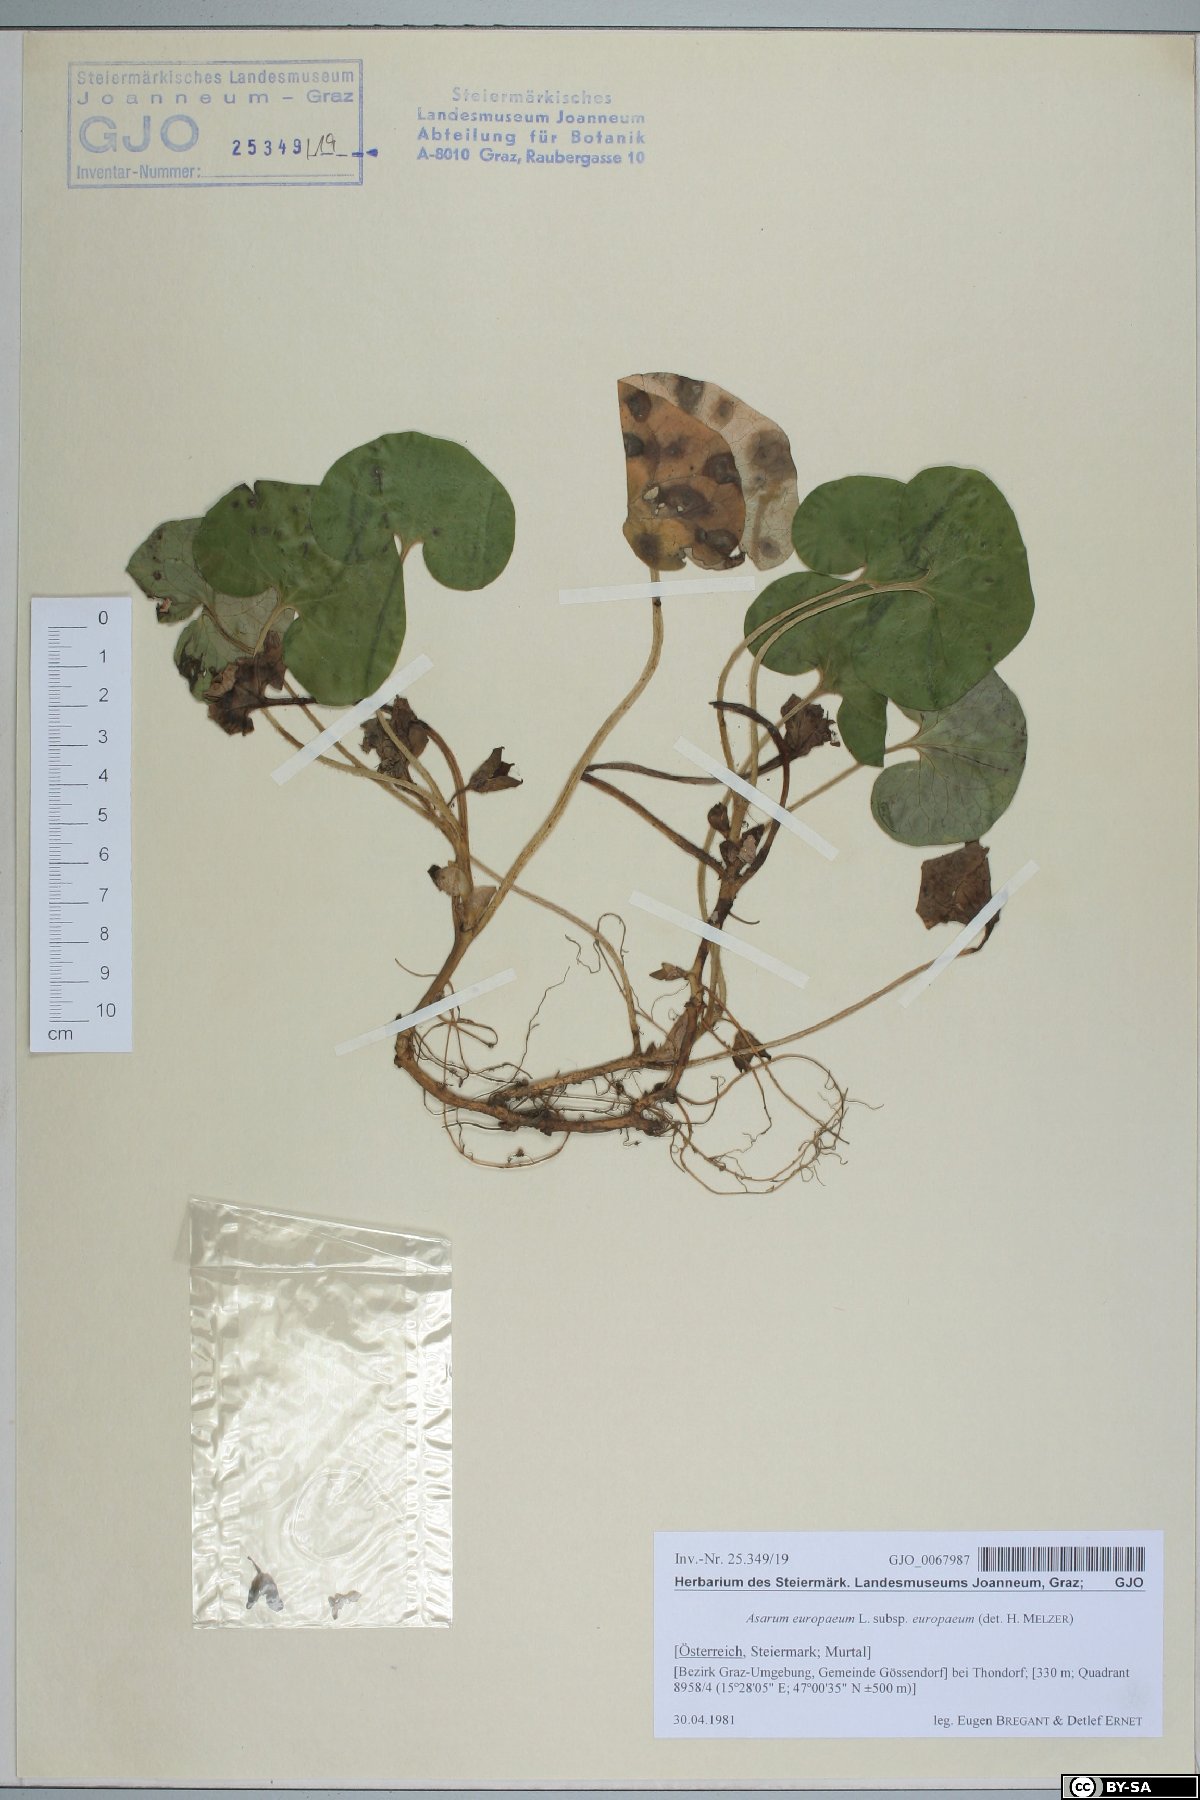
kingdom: Plantae
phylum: Tracheophyta
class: Magnoliopsida
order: Piperales
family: Aristolochiaceae
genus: Asarum
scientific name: Asarum europaeum
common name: Asarabacca
